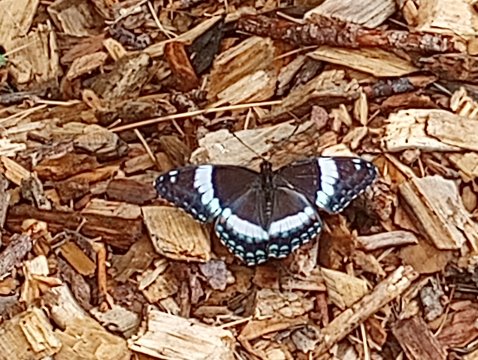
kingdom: Animalia
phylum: Arthropoda
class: Insecta
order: Lepidoptera
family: Nymphalidae
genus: Limenitis
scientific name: Limenitis arthemis
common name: Red-spotted Admiral
